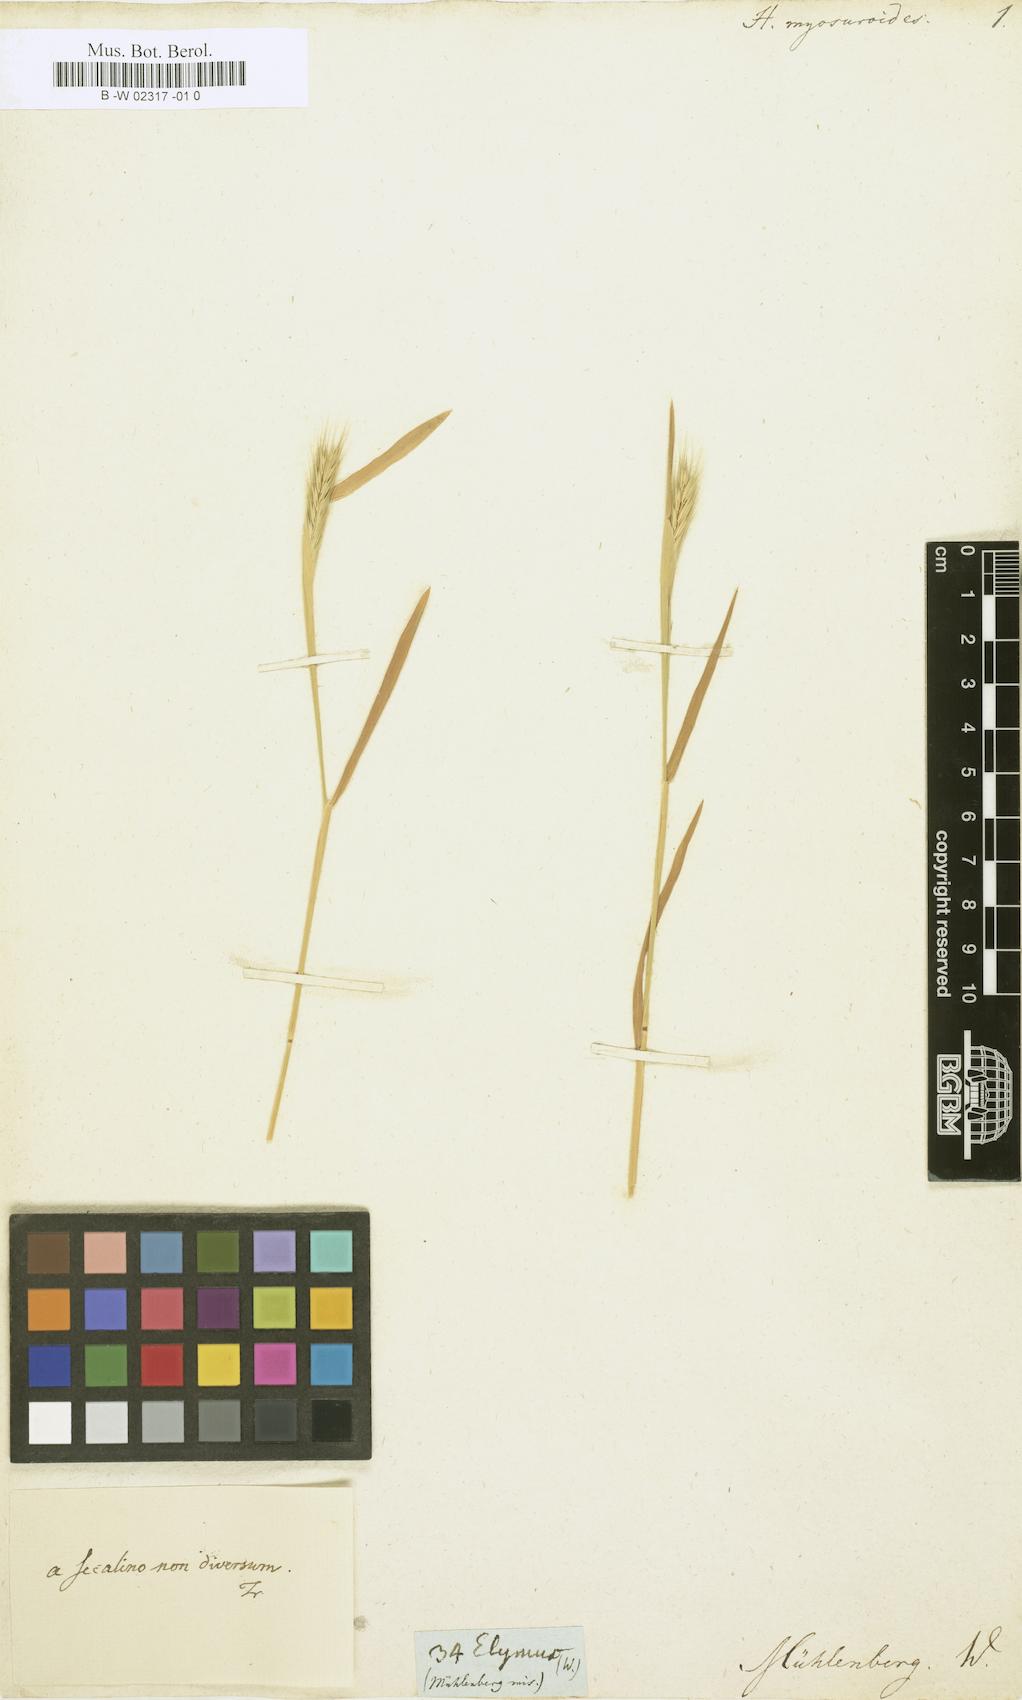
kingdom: Plantae
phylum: Tracheophyta
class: Liliopsida
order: Poales
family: Poaceae
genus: Hordeum
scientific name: Hordeum
